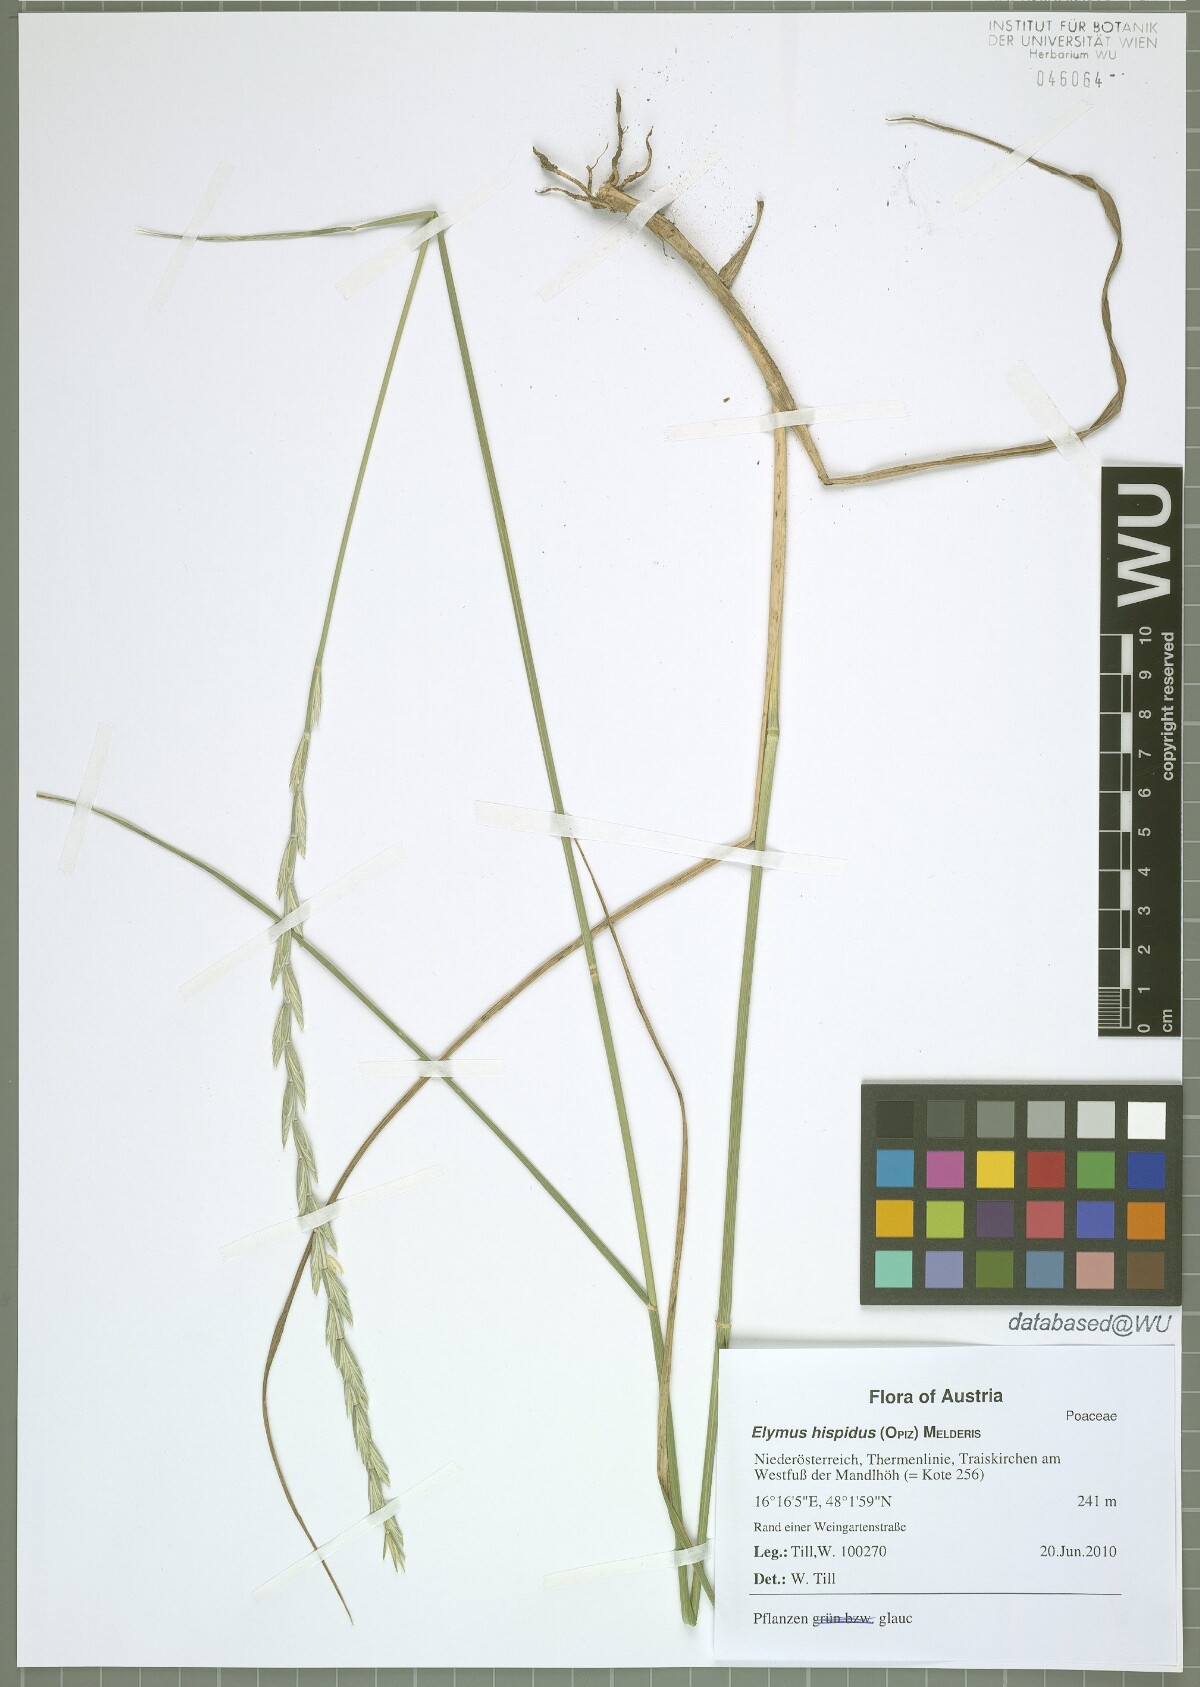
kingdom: Plantae
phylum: Tracheophyta
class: Liliopsida
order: Poales
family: Poaceae
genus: Thinopyrum
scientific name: Thinopyrum intermedium
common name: Intermediate wheatgrass
